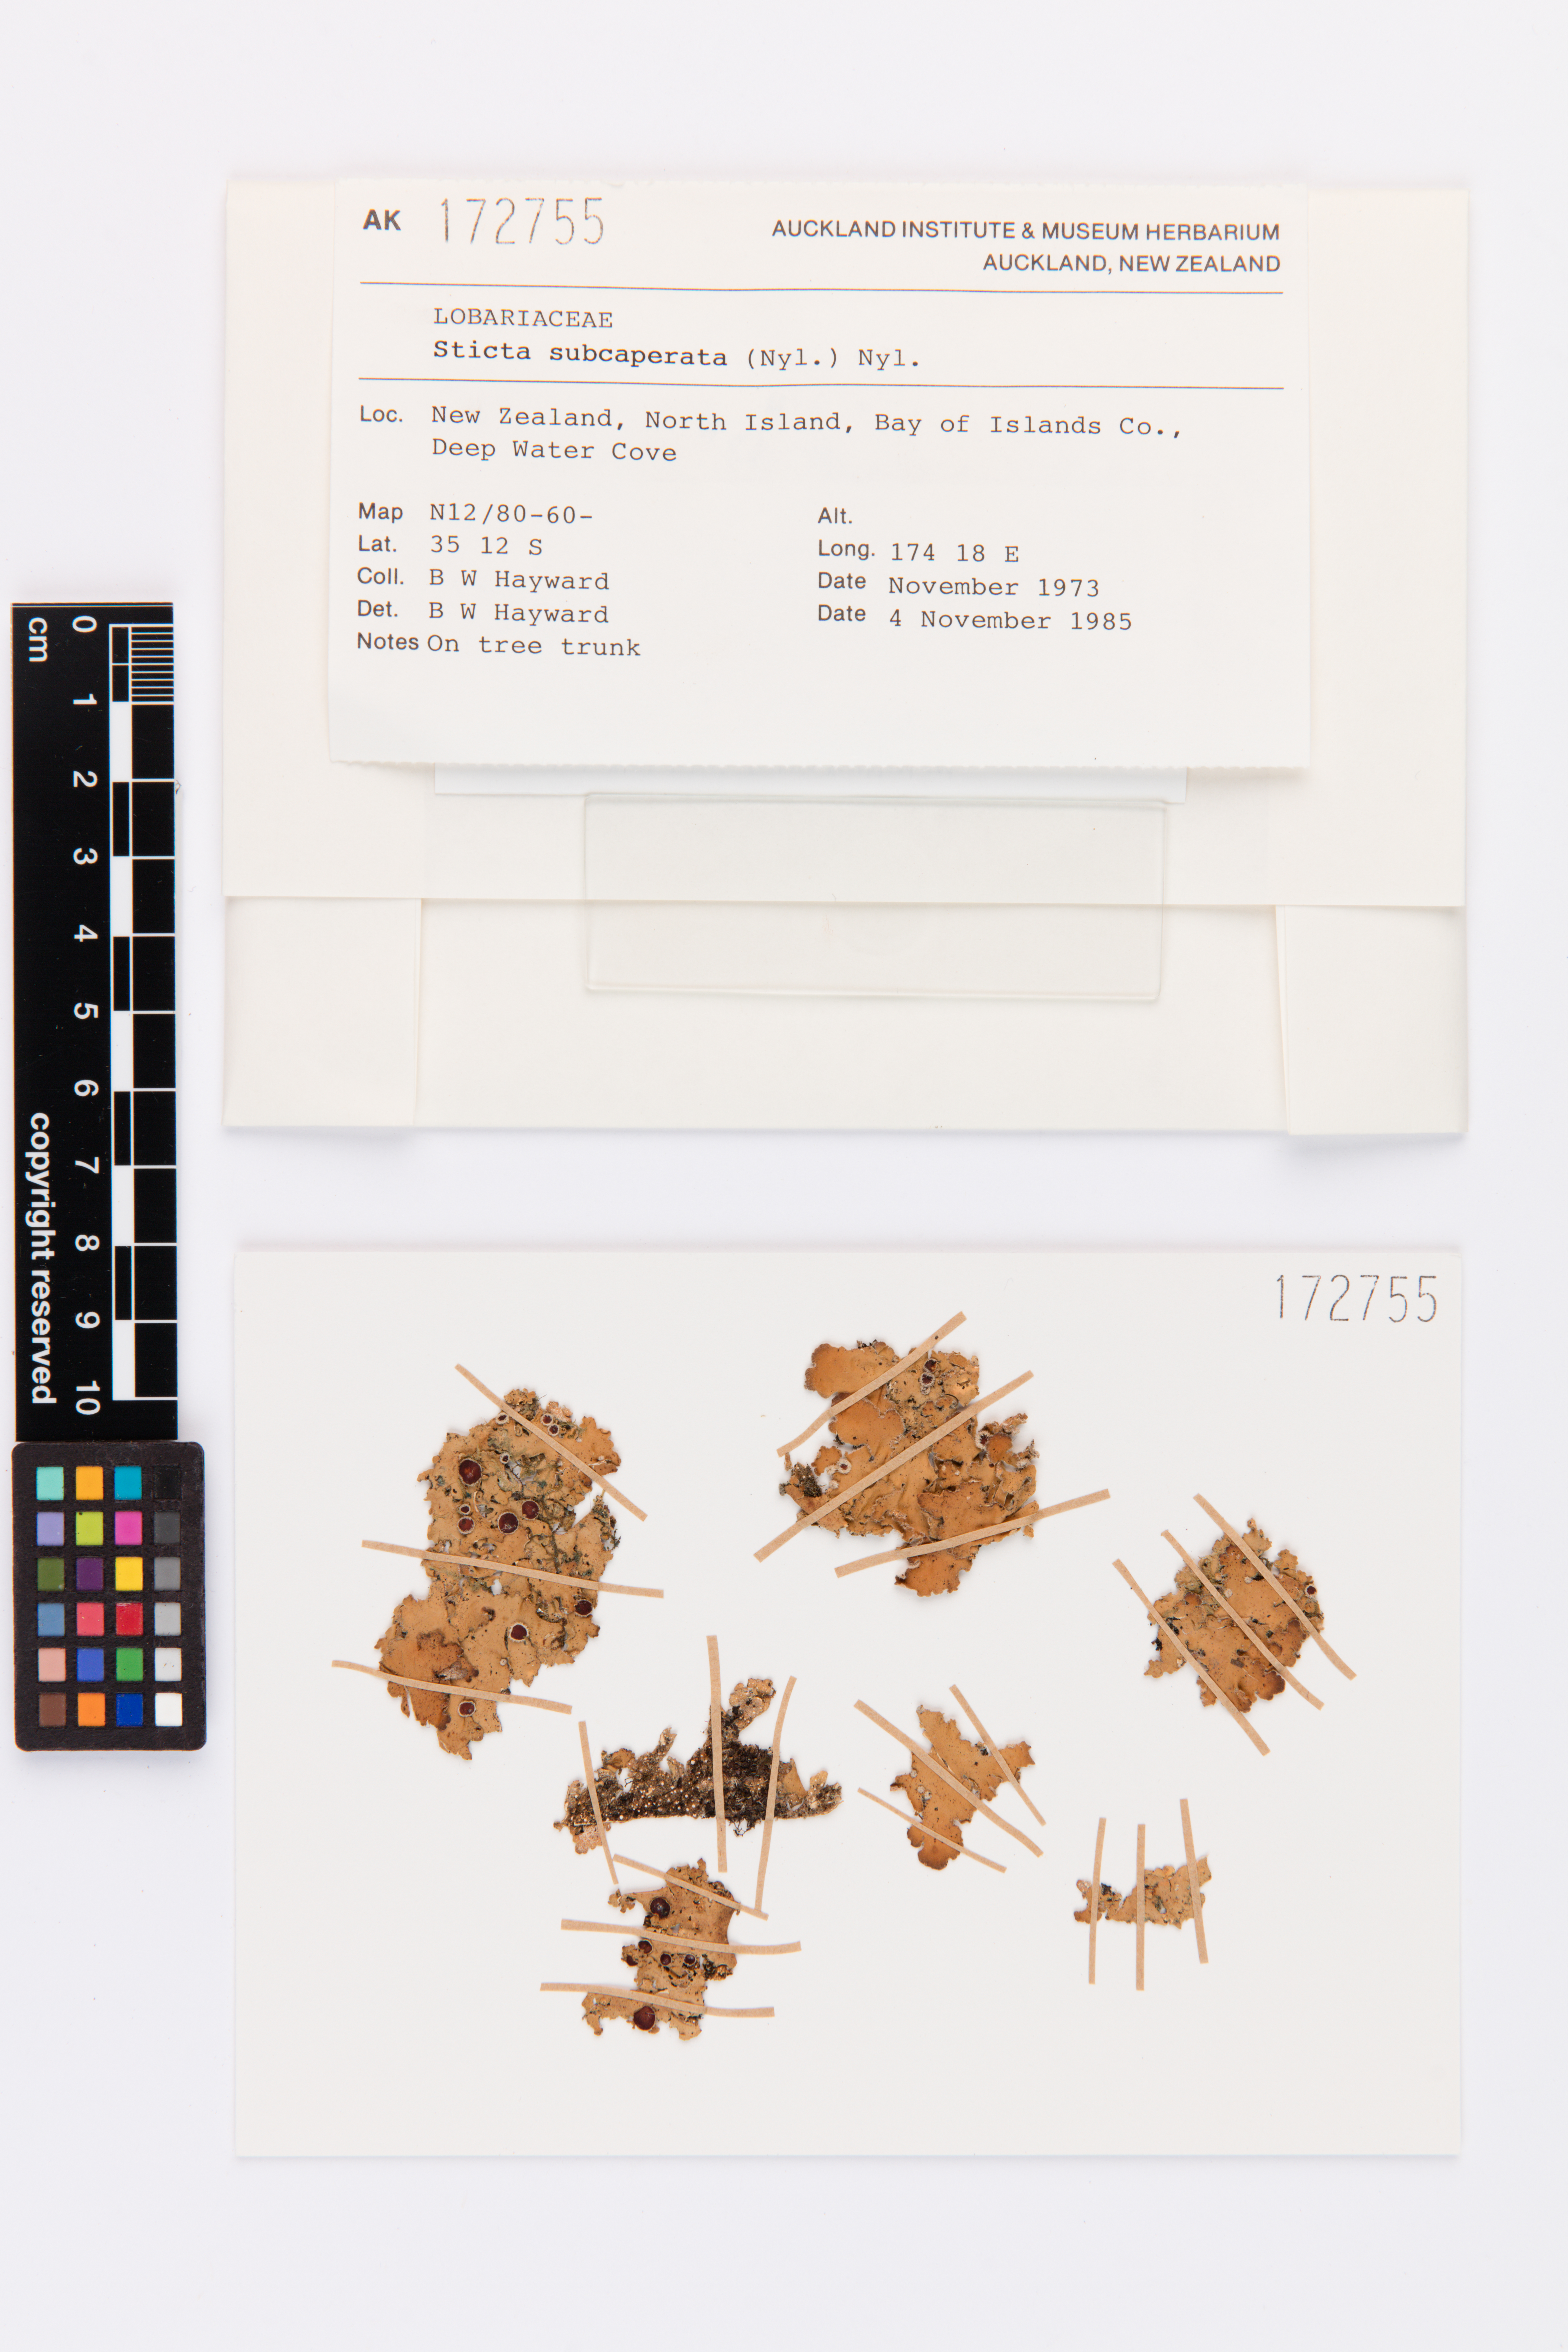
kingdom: Fungi
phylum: Ascomycota
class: Lecanoromycetes
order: Peltigerales
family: Lobariaceae
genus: Sticta
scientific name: Sticta subcaperata
